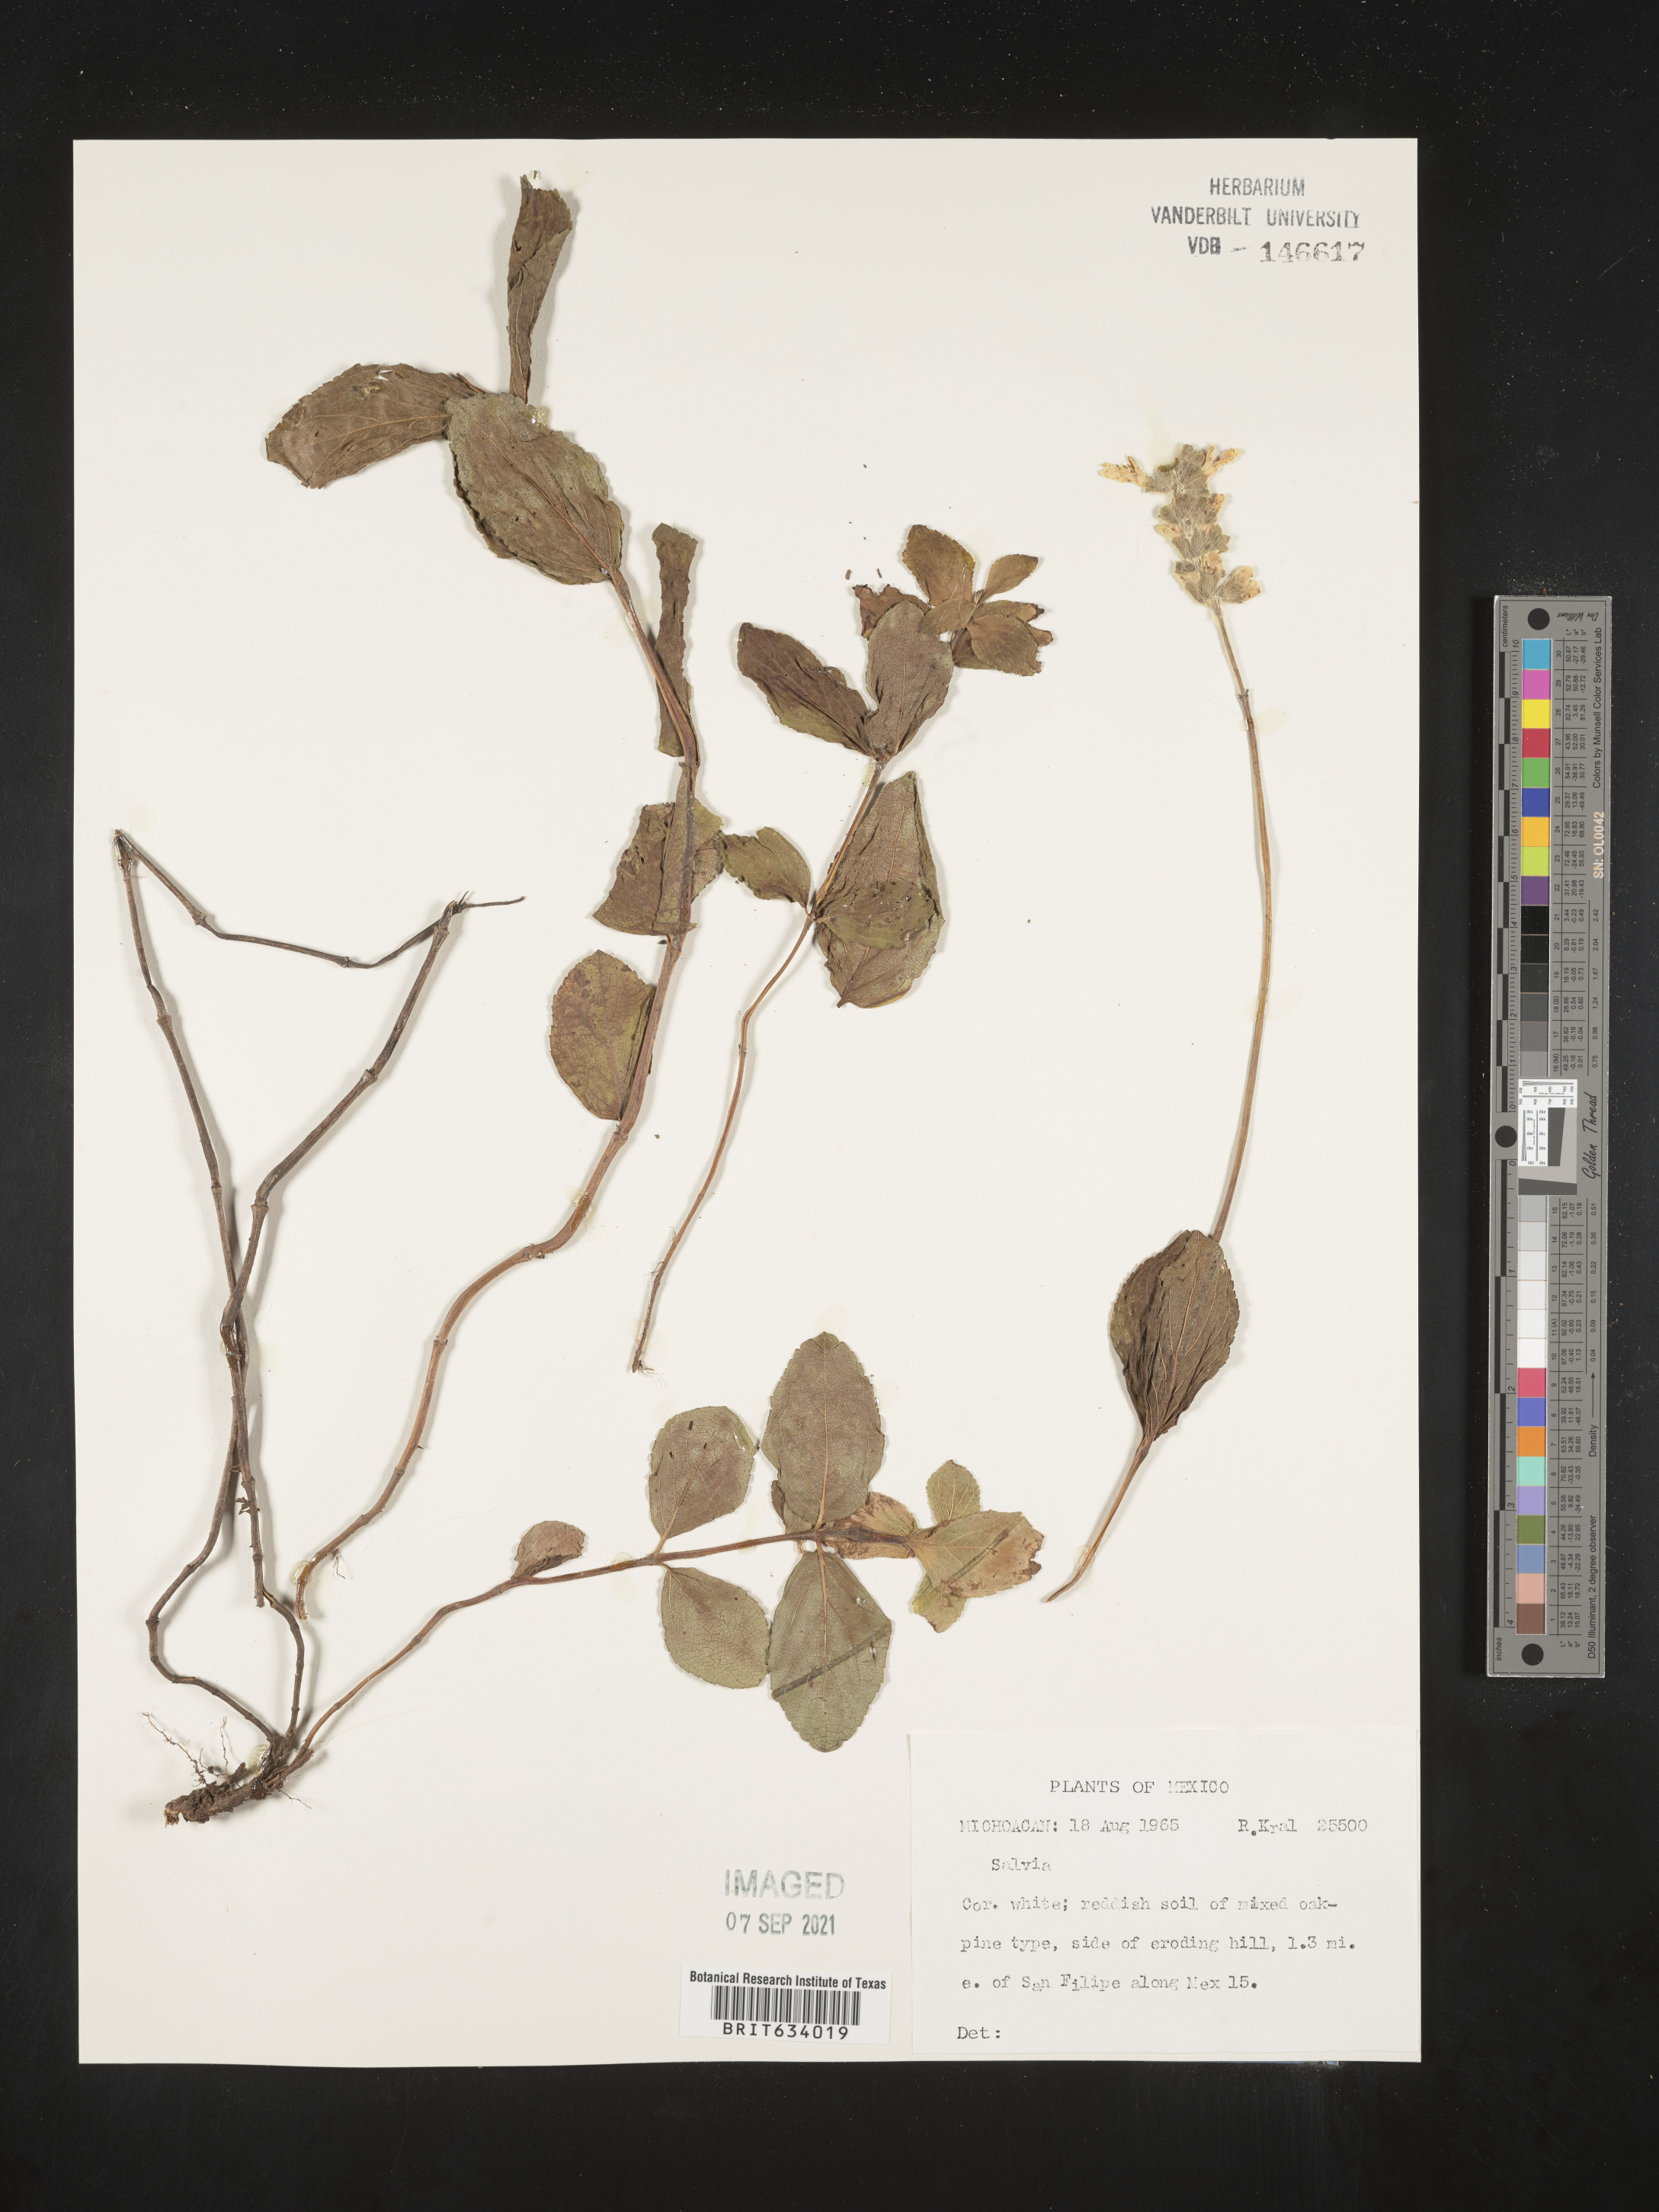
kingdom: Plantae
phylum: Tracheophyta
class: Magnoliopsida
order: Lamiales
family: Lamiaceae
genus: Salvia
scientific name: Salvia
